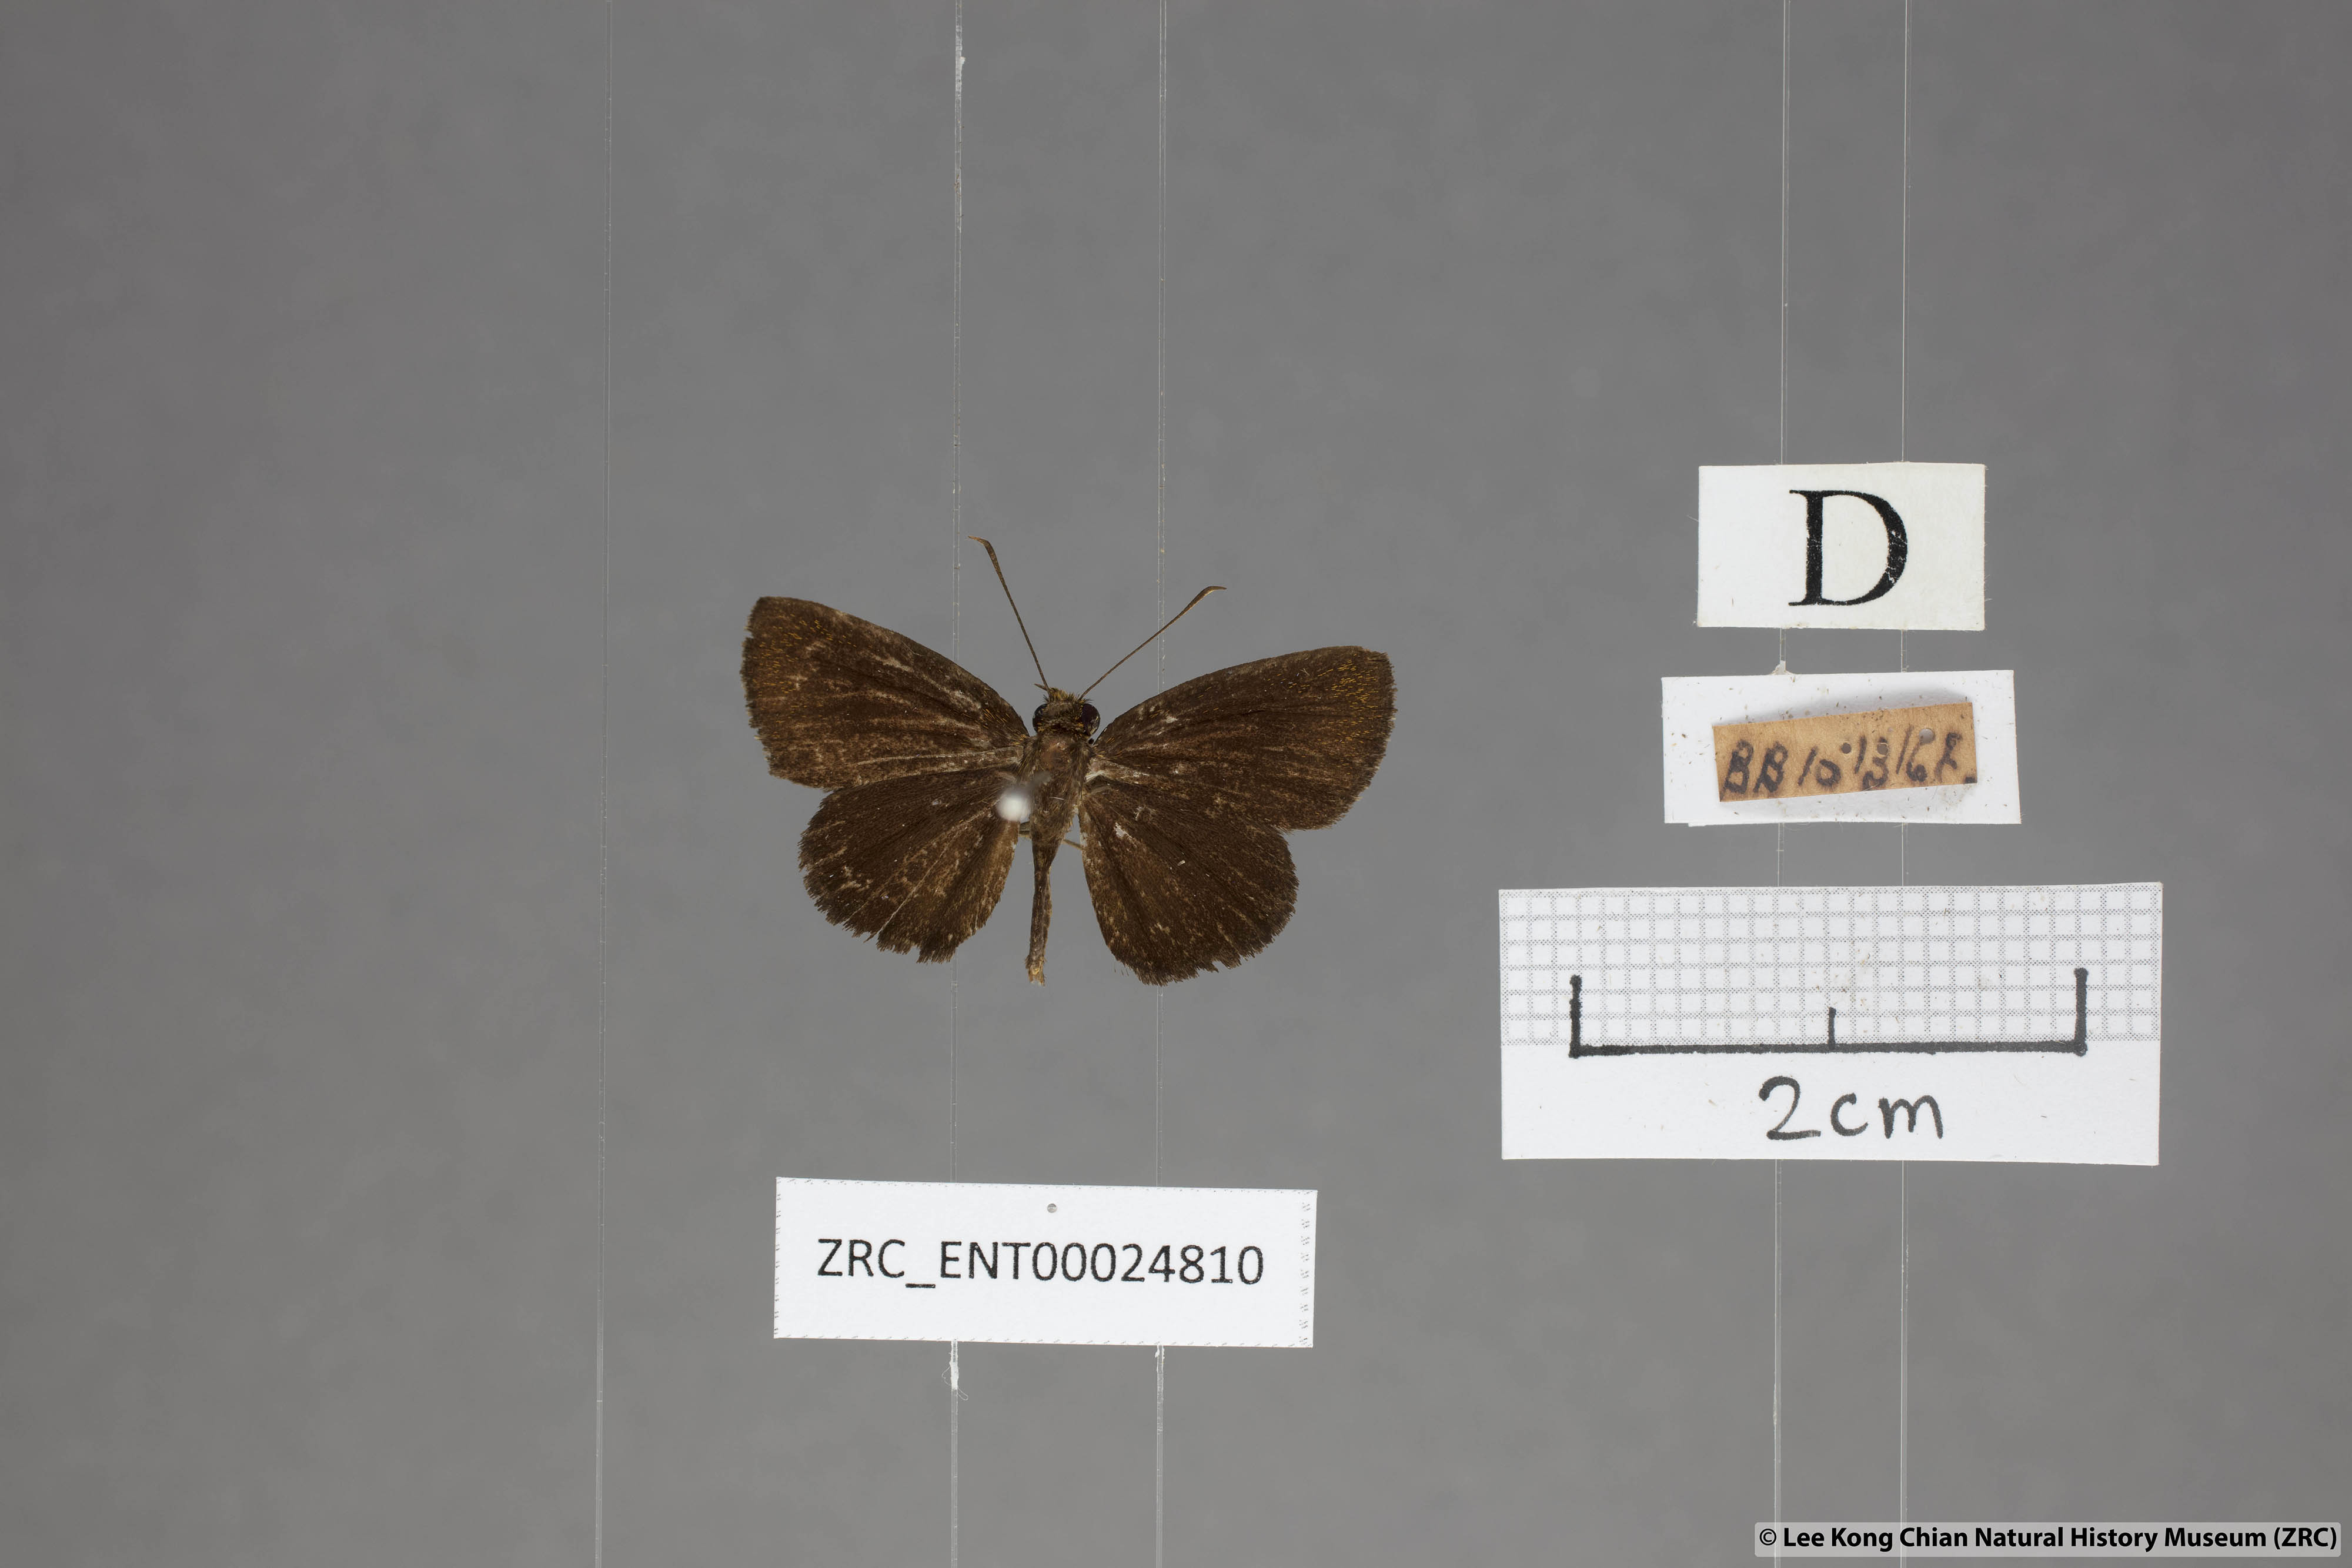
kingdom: Animalia
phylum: Arthropoda
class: Insecta
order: Lepidoptera
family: Hesperiidae
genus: Iambrix
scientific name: Iambrix salsala
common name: Chestnut bob
